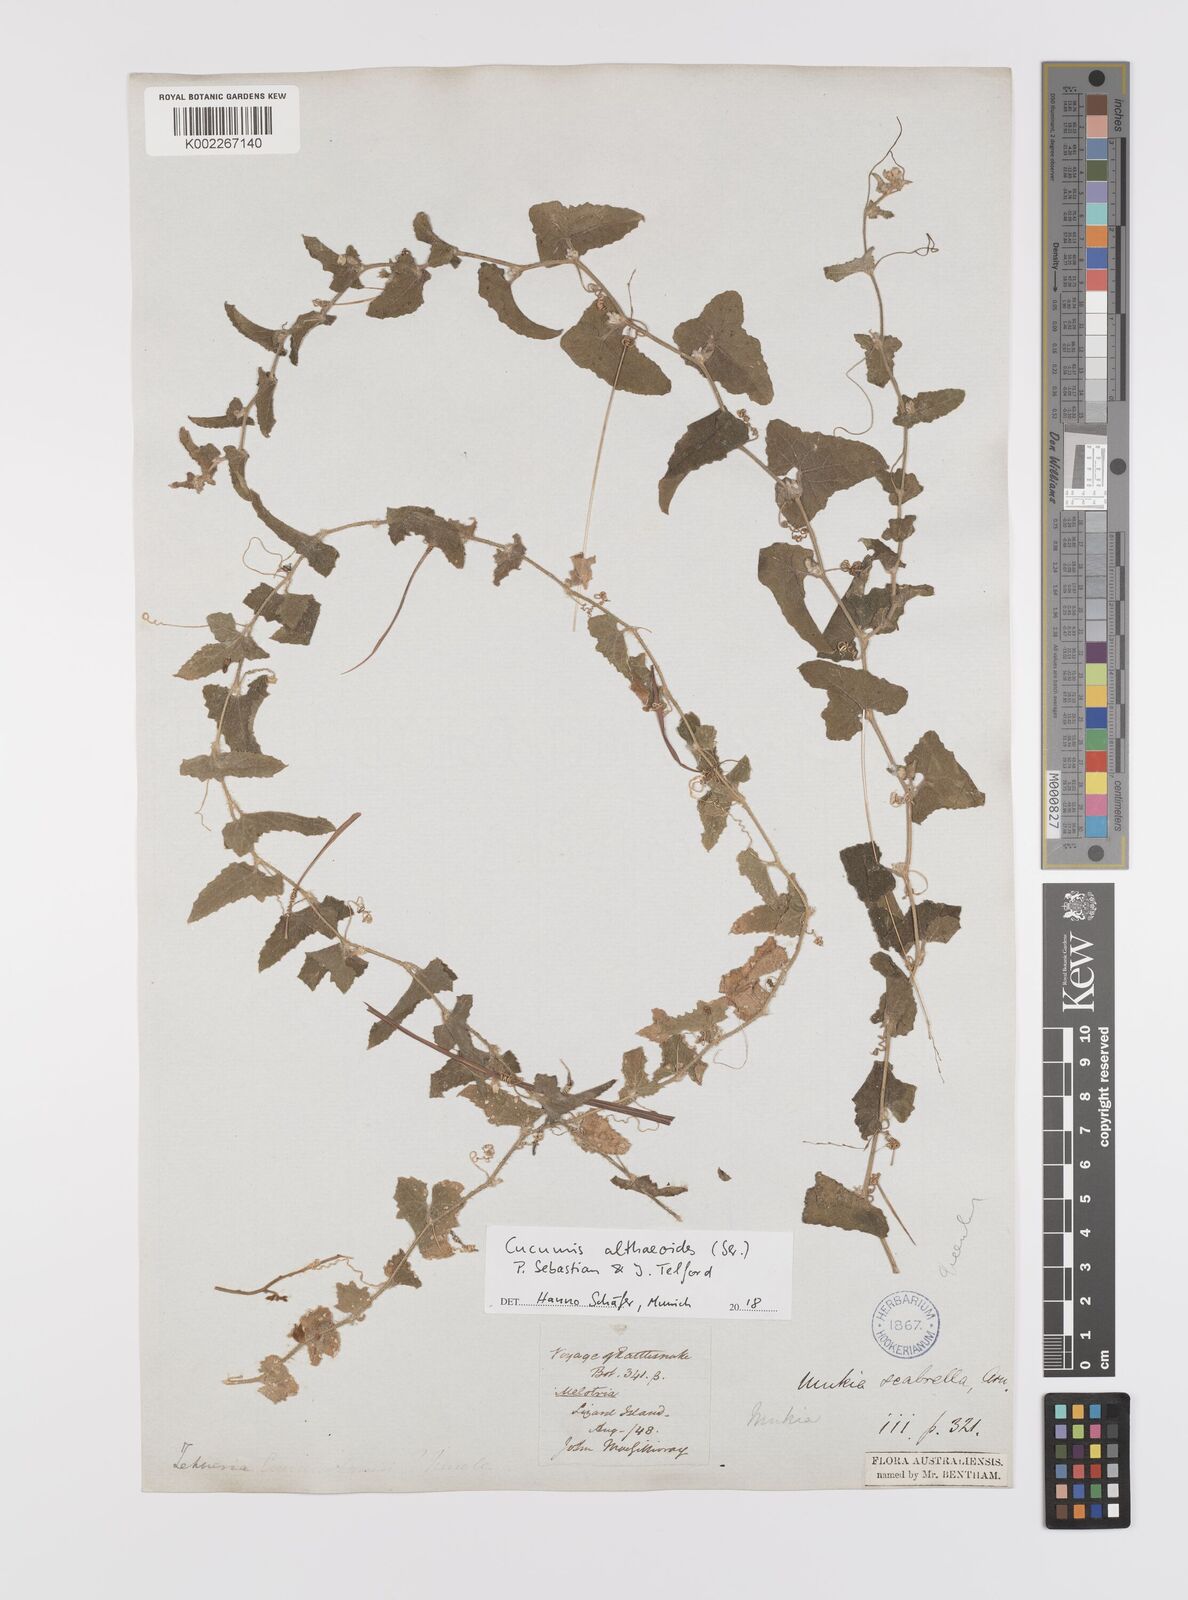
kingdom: Plantae
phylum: Tracheophyta
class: Magnoliopsida
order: Cucurbitales
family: Cucurbitaceae
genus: Cucumis
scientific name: Cucumis althaeoides
